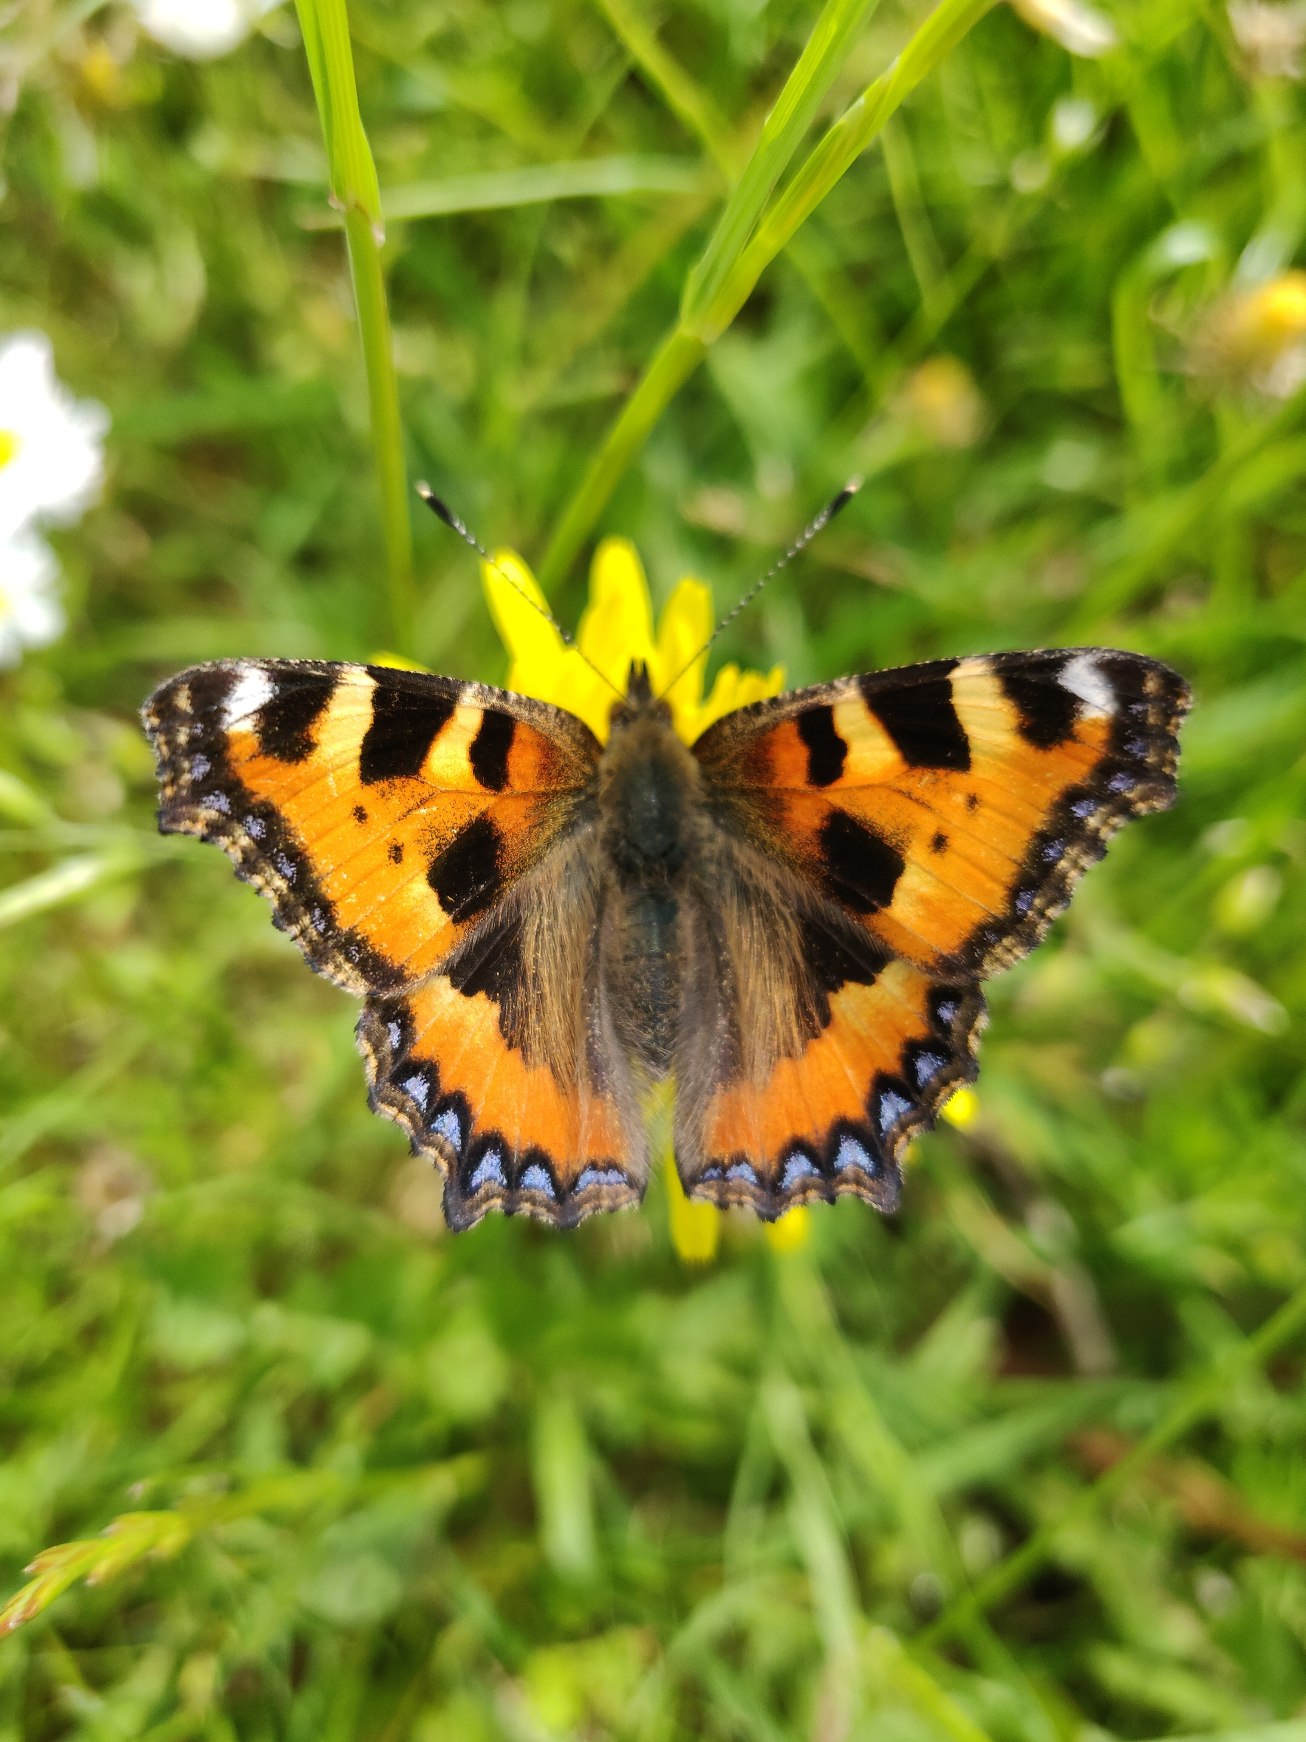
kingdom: Animalia
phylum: Arthropoda
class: Insecta
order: Lepidoptera
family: Nymphalidae
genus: Aglais
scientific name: Aglais urticae
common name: Nældens takvinge
